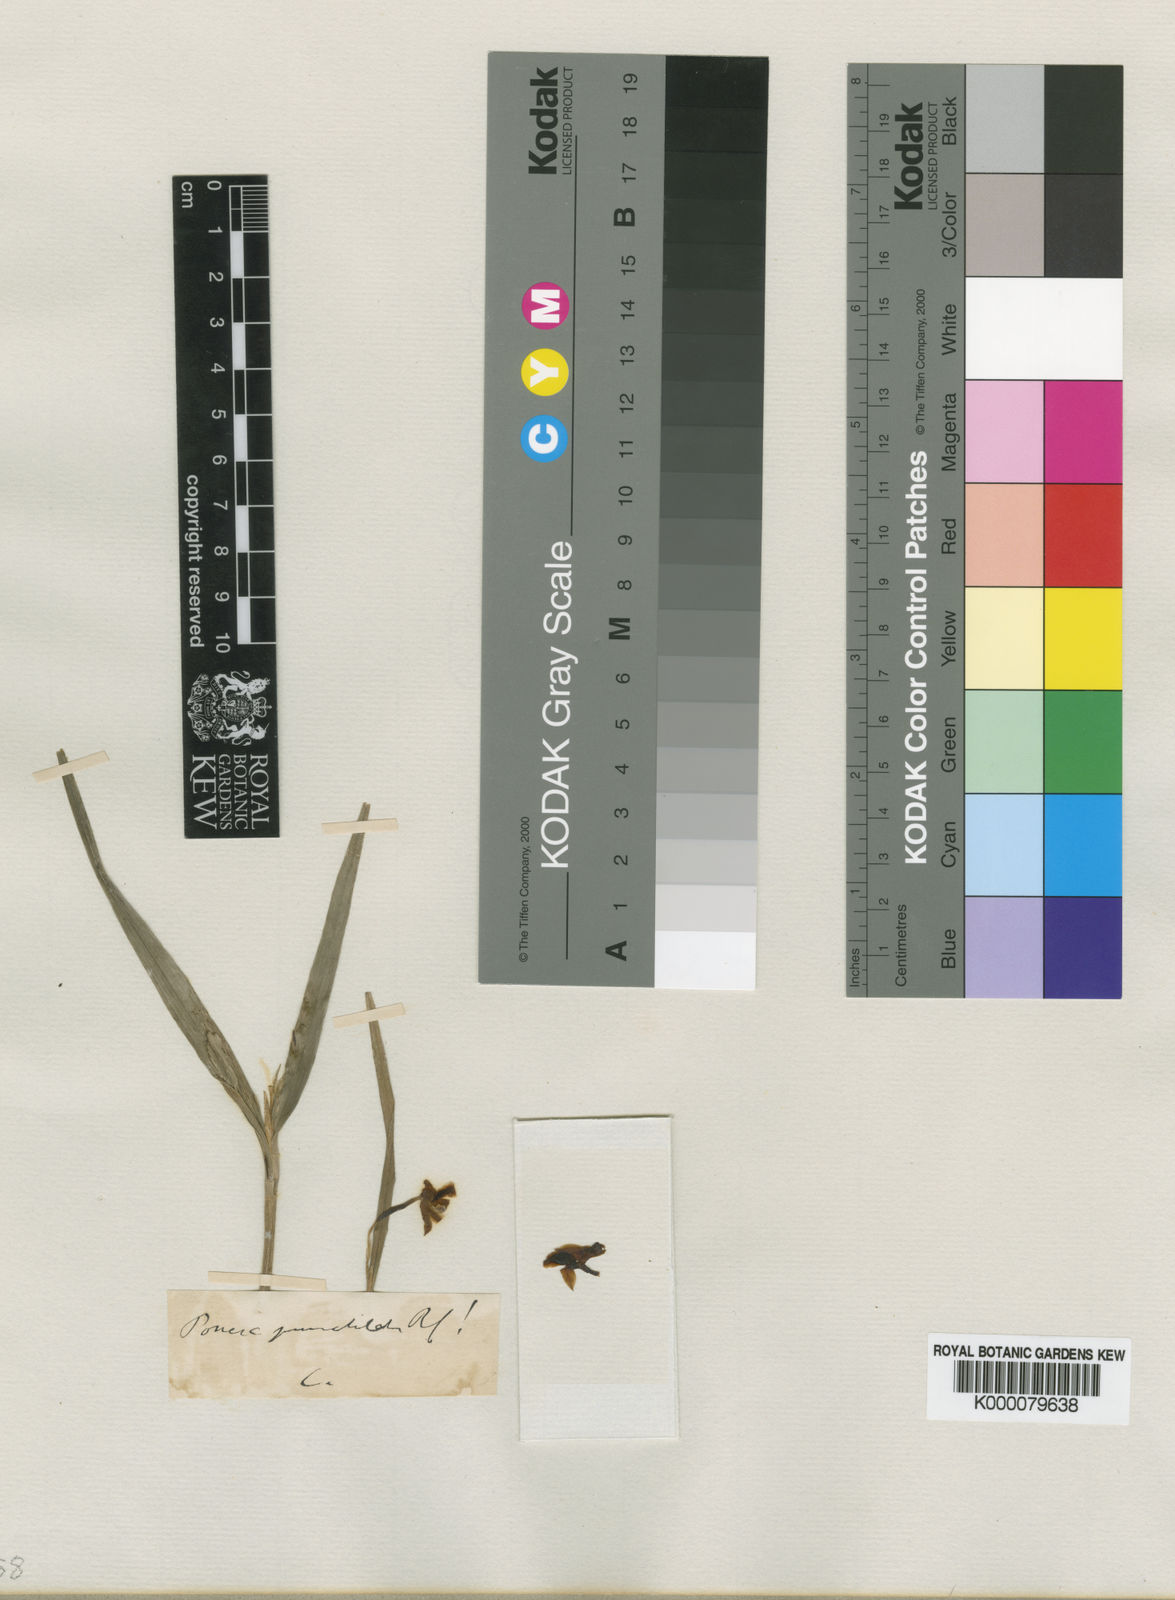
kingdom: Plantae
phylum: Tracheophyta
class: Liliopsida
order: Asparagales
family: Orchidaceae
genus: Scaphyglottis
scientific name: Scaphyglottis punctulata
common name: Dotted orchid
